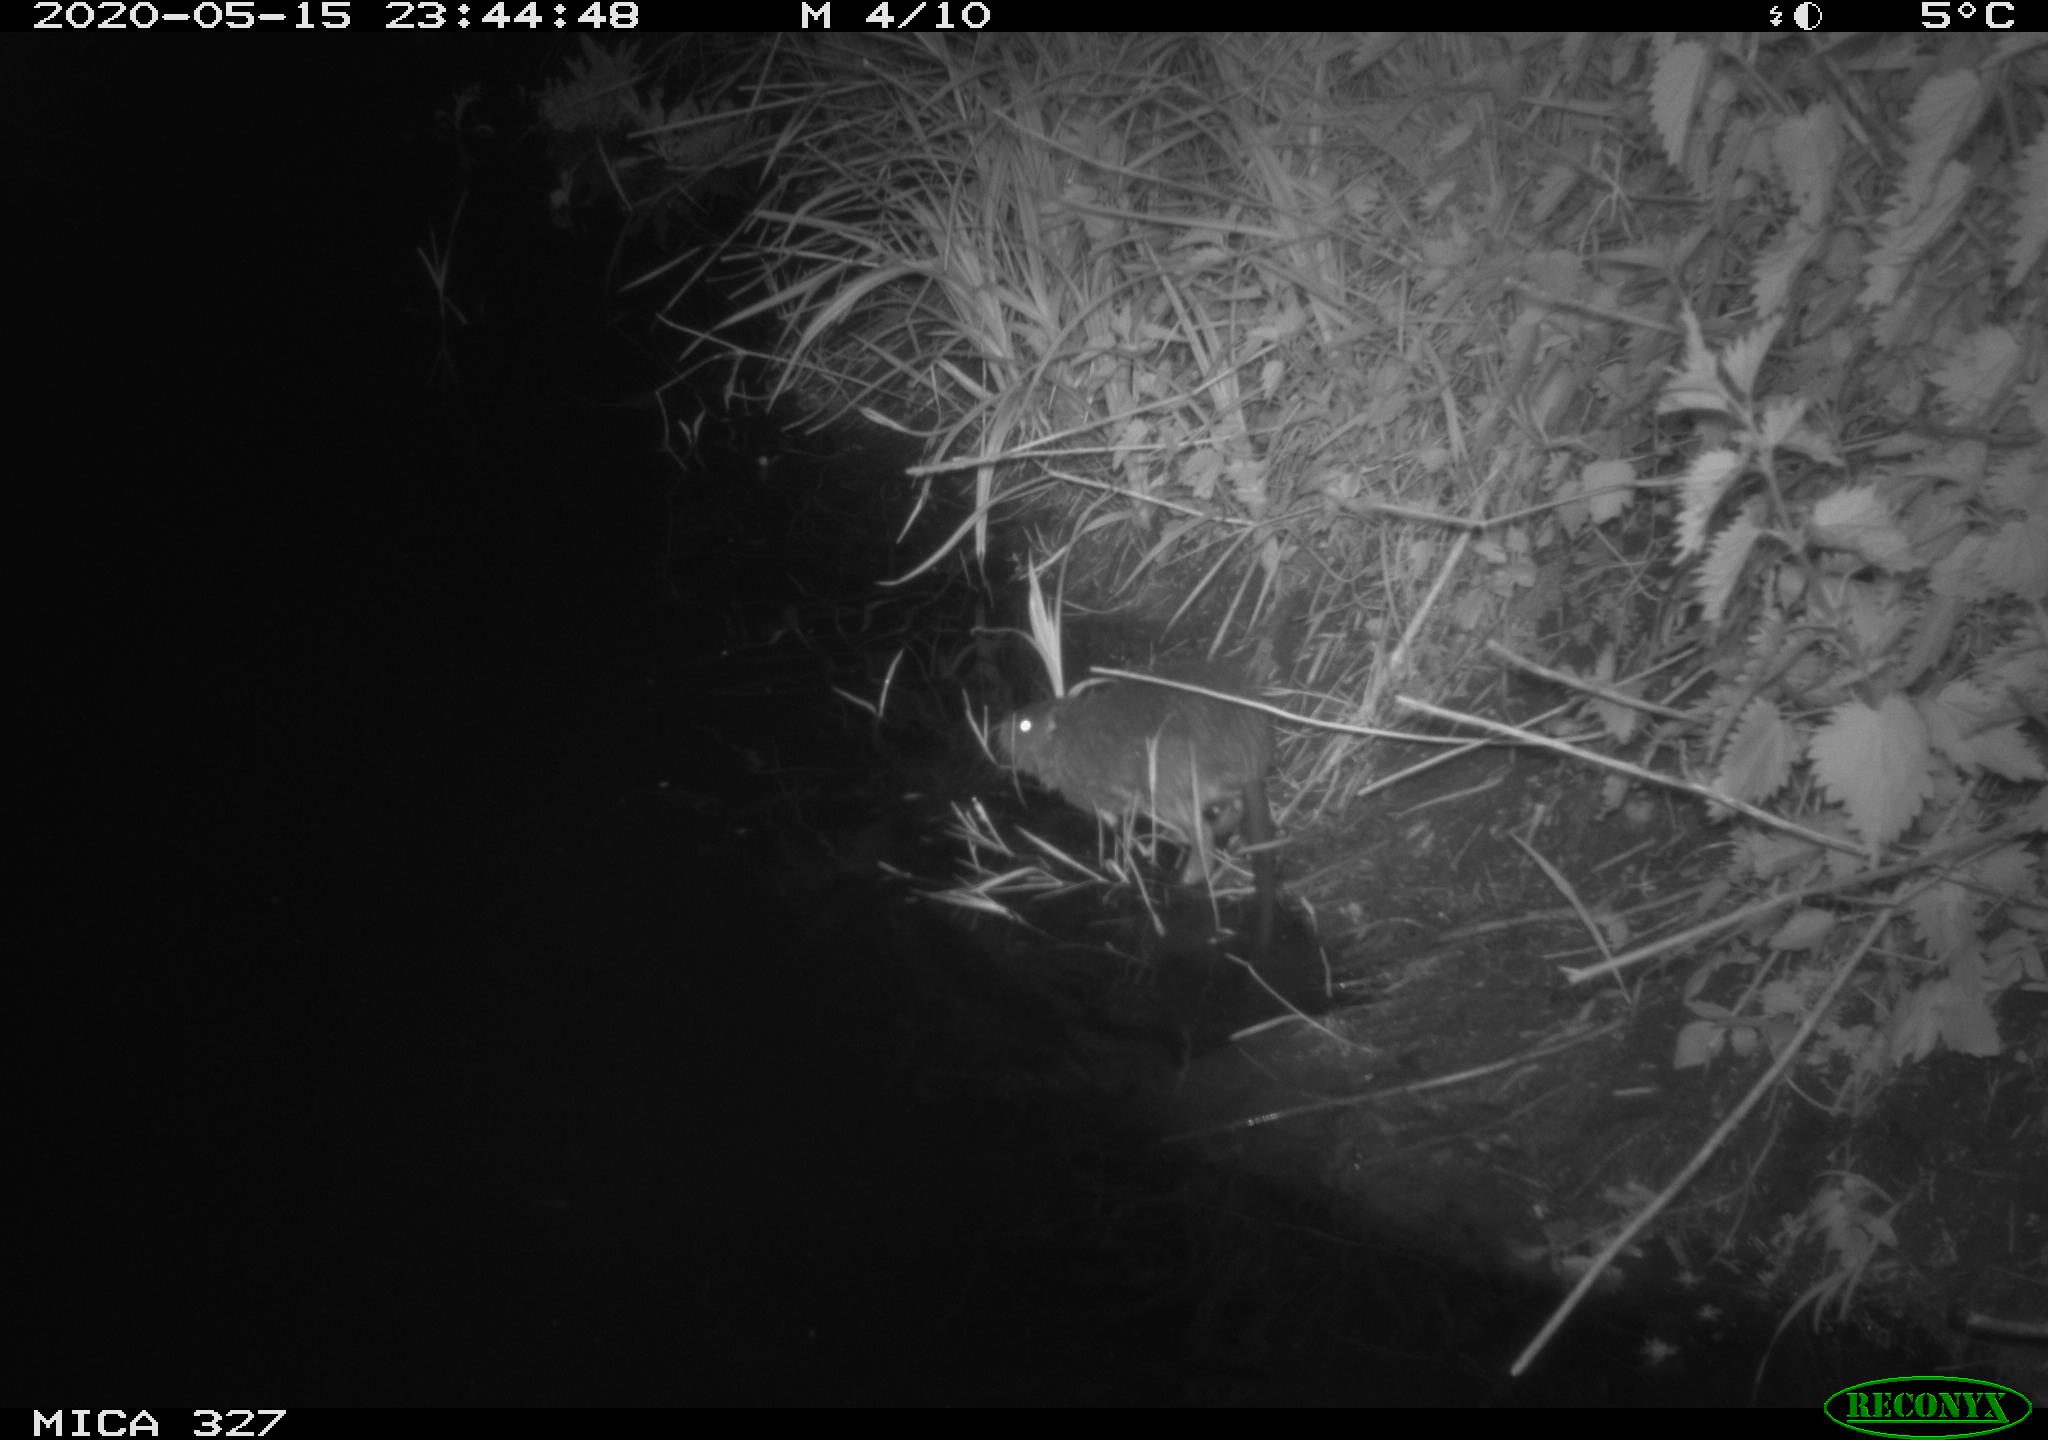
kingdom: Animalia
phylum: Chordata
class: Mammalia
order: Rodentia
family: Myocastoridae
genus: Myocastor
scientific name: Myocastor coypus
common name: Coypu
